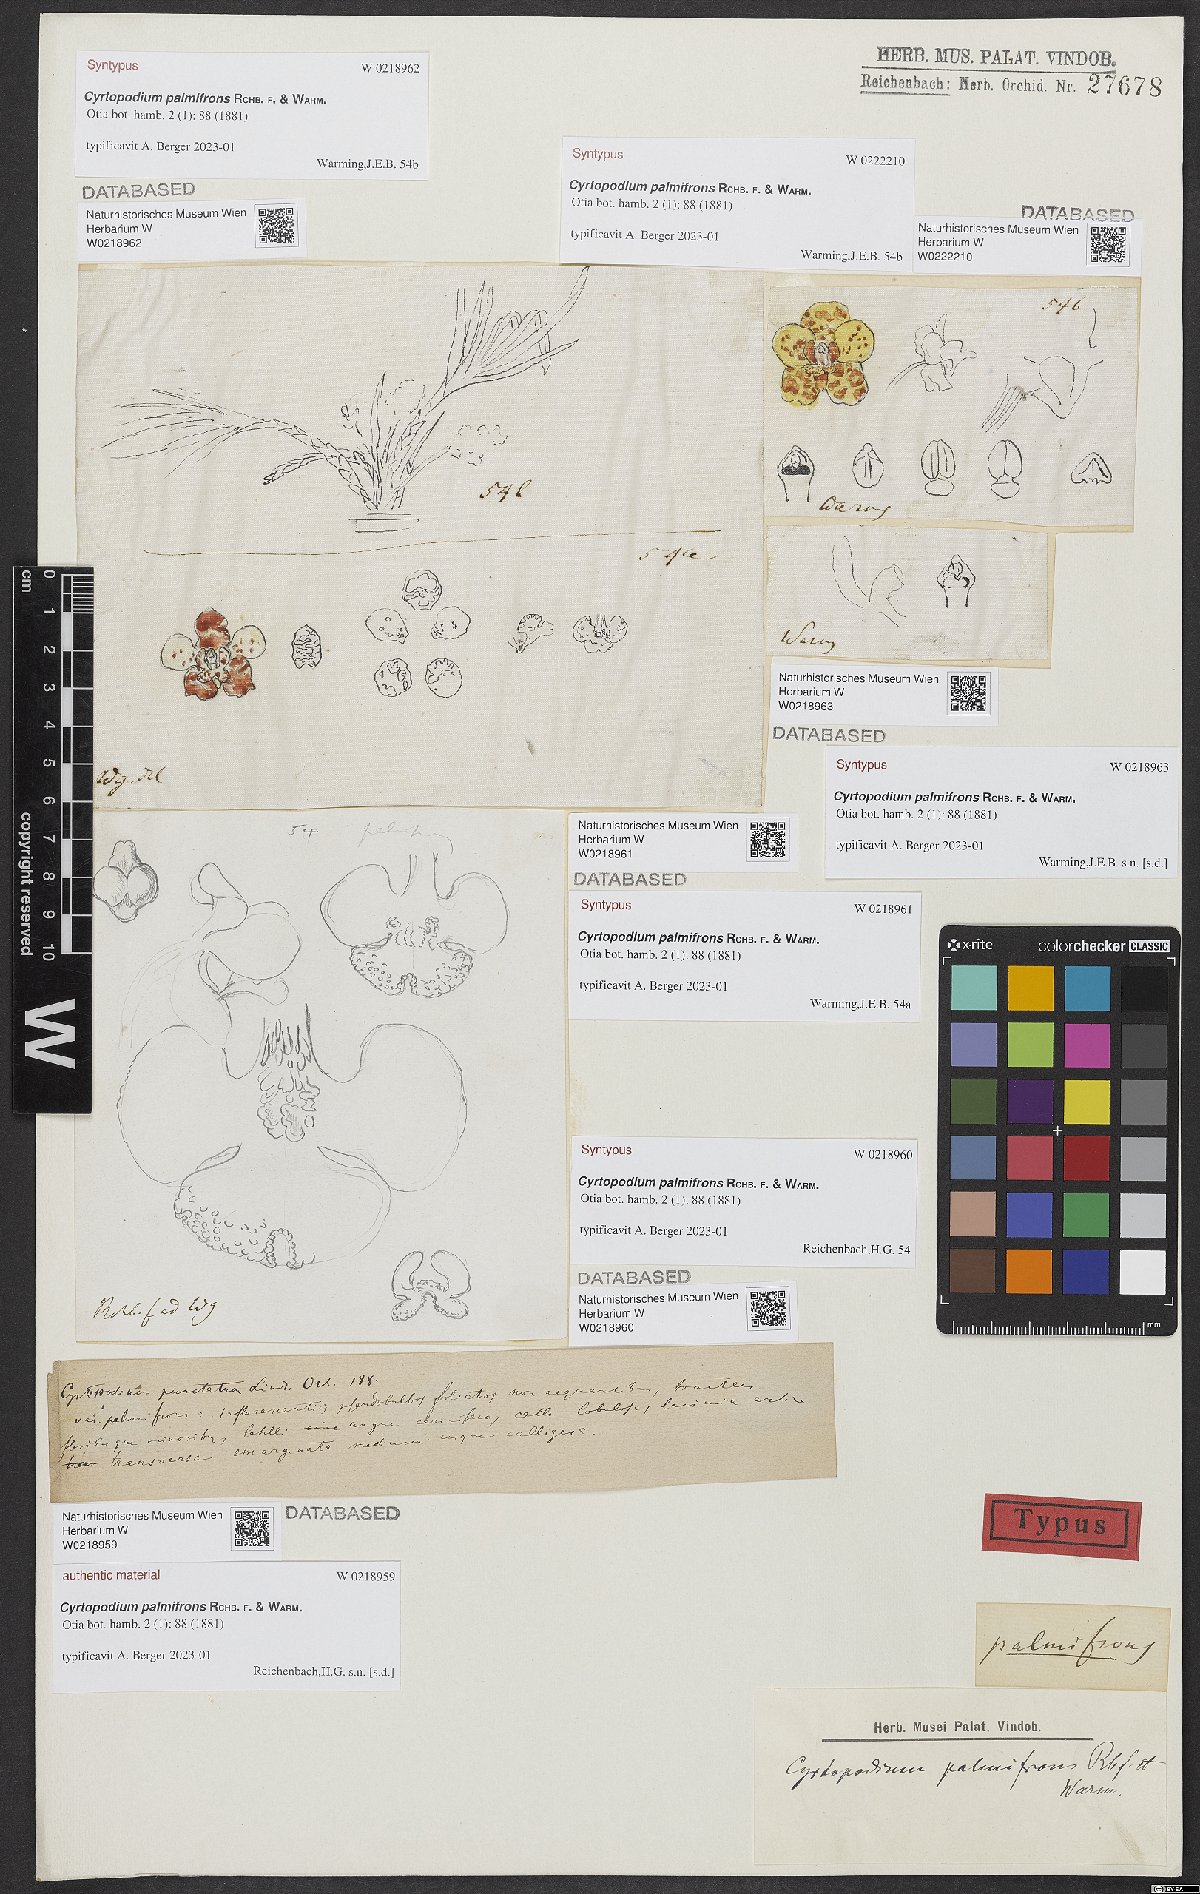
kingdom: Plantae
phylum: Tracheophyta
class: Liliopsida
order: Asparagales
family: Orchidaceae
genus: Cyrtopodium
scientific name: Cyrtopodium palmifrons
